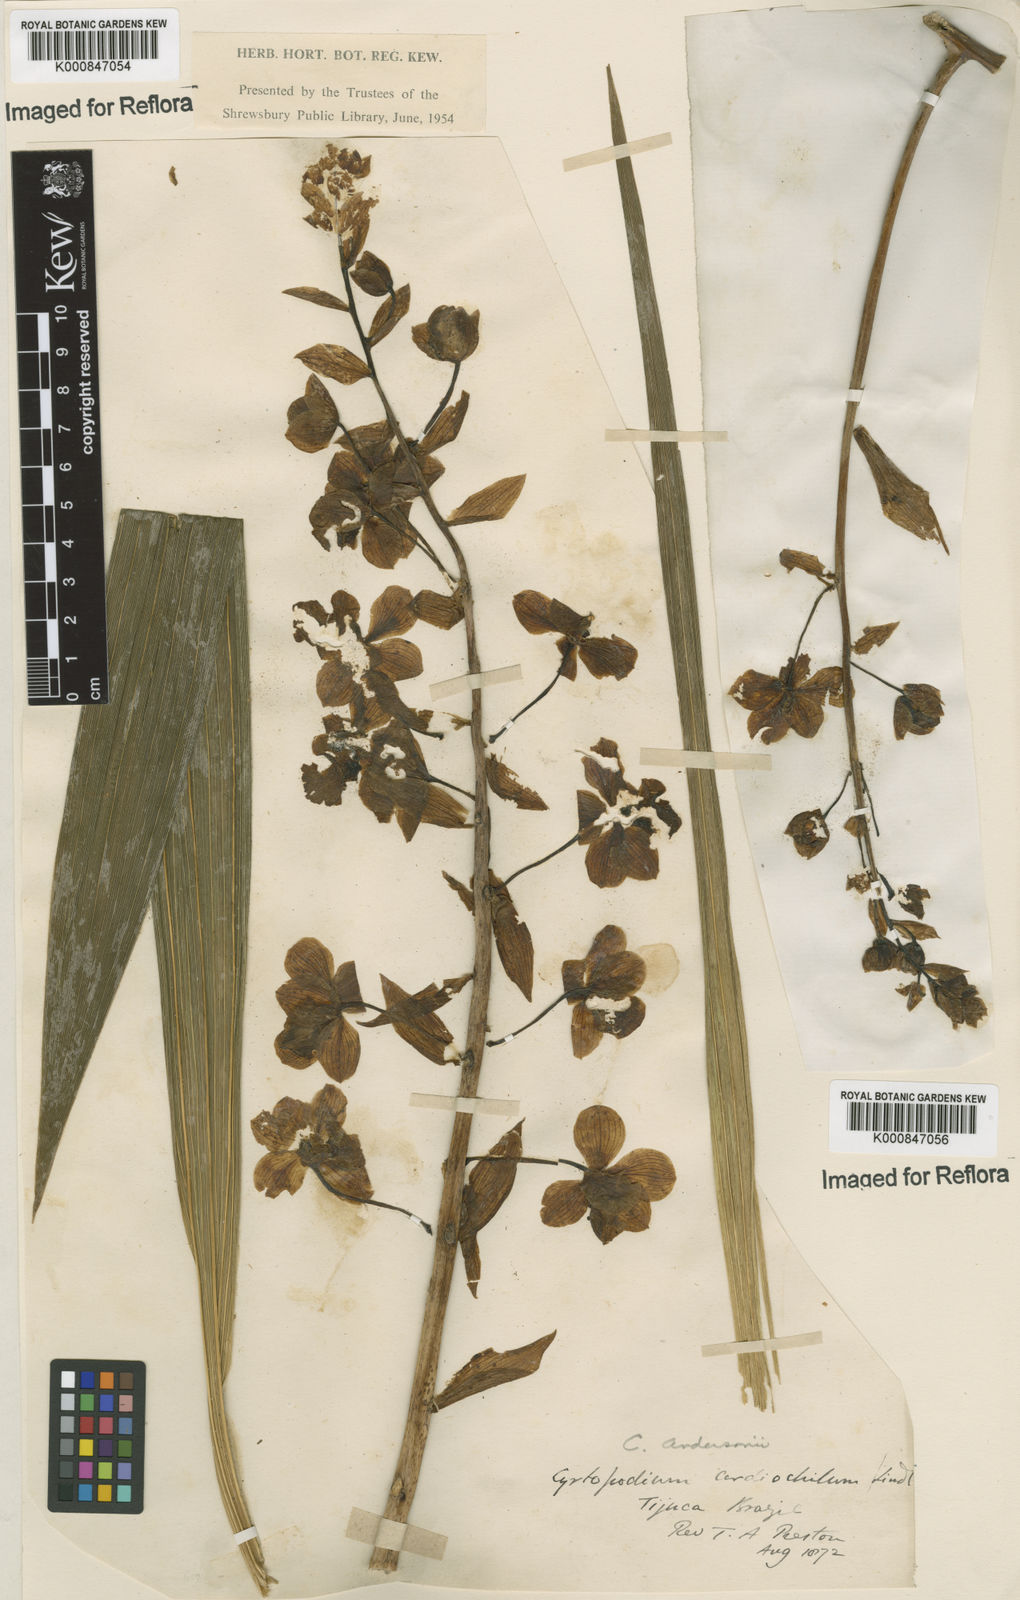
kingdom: Plantae
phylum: Tracheophyta
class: Liliopsida
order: Asparagales
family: Orchidaceae
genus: Cyrtopodium
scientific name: Cyrtopodium andersonii
